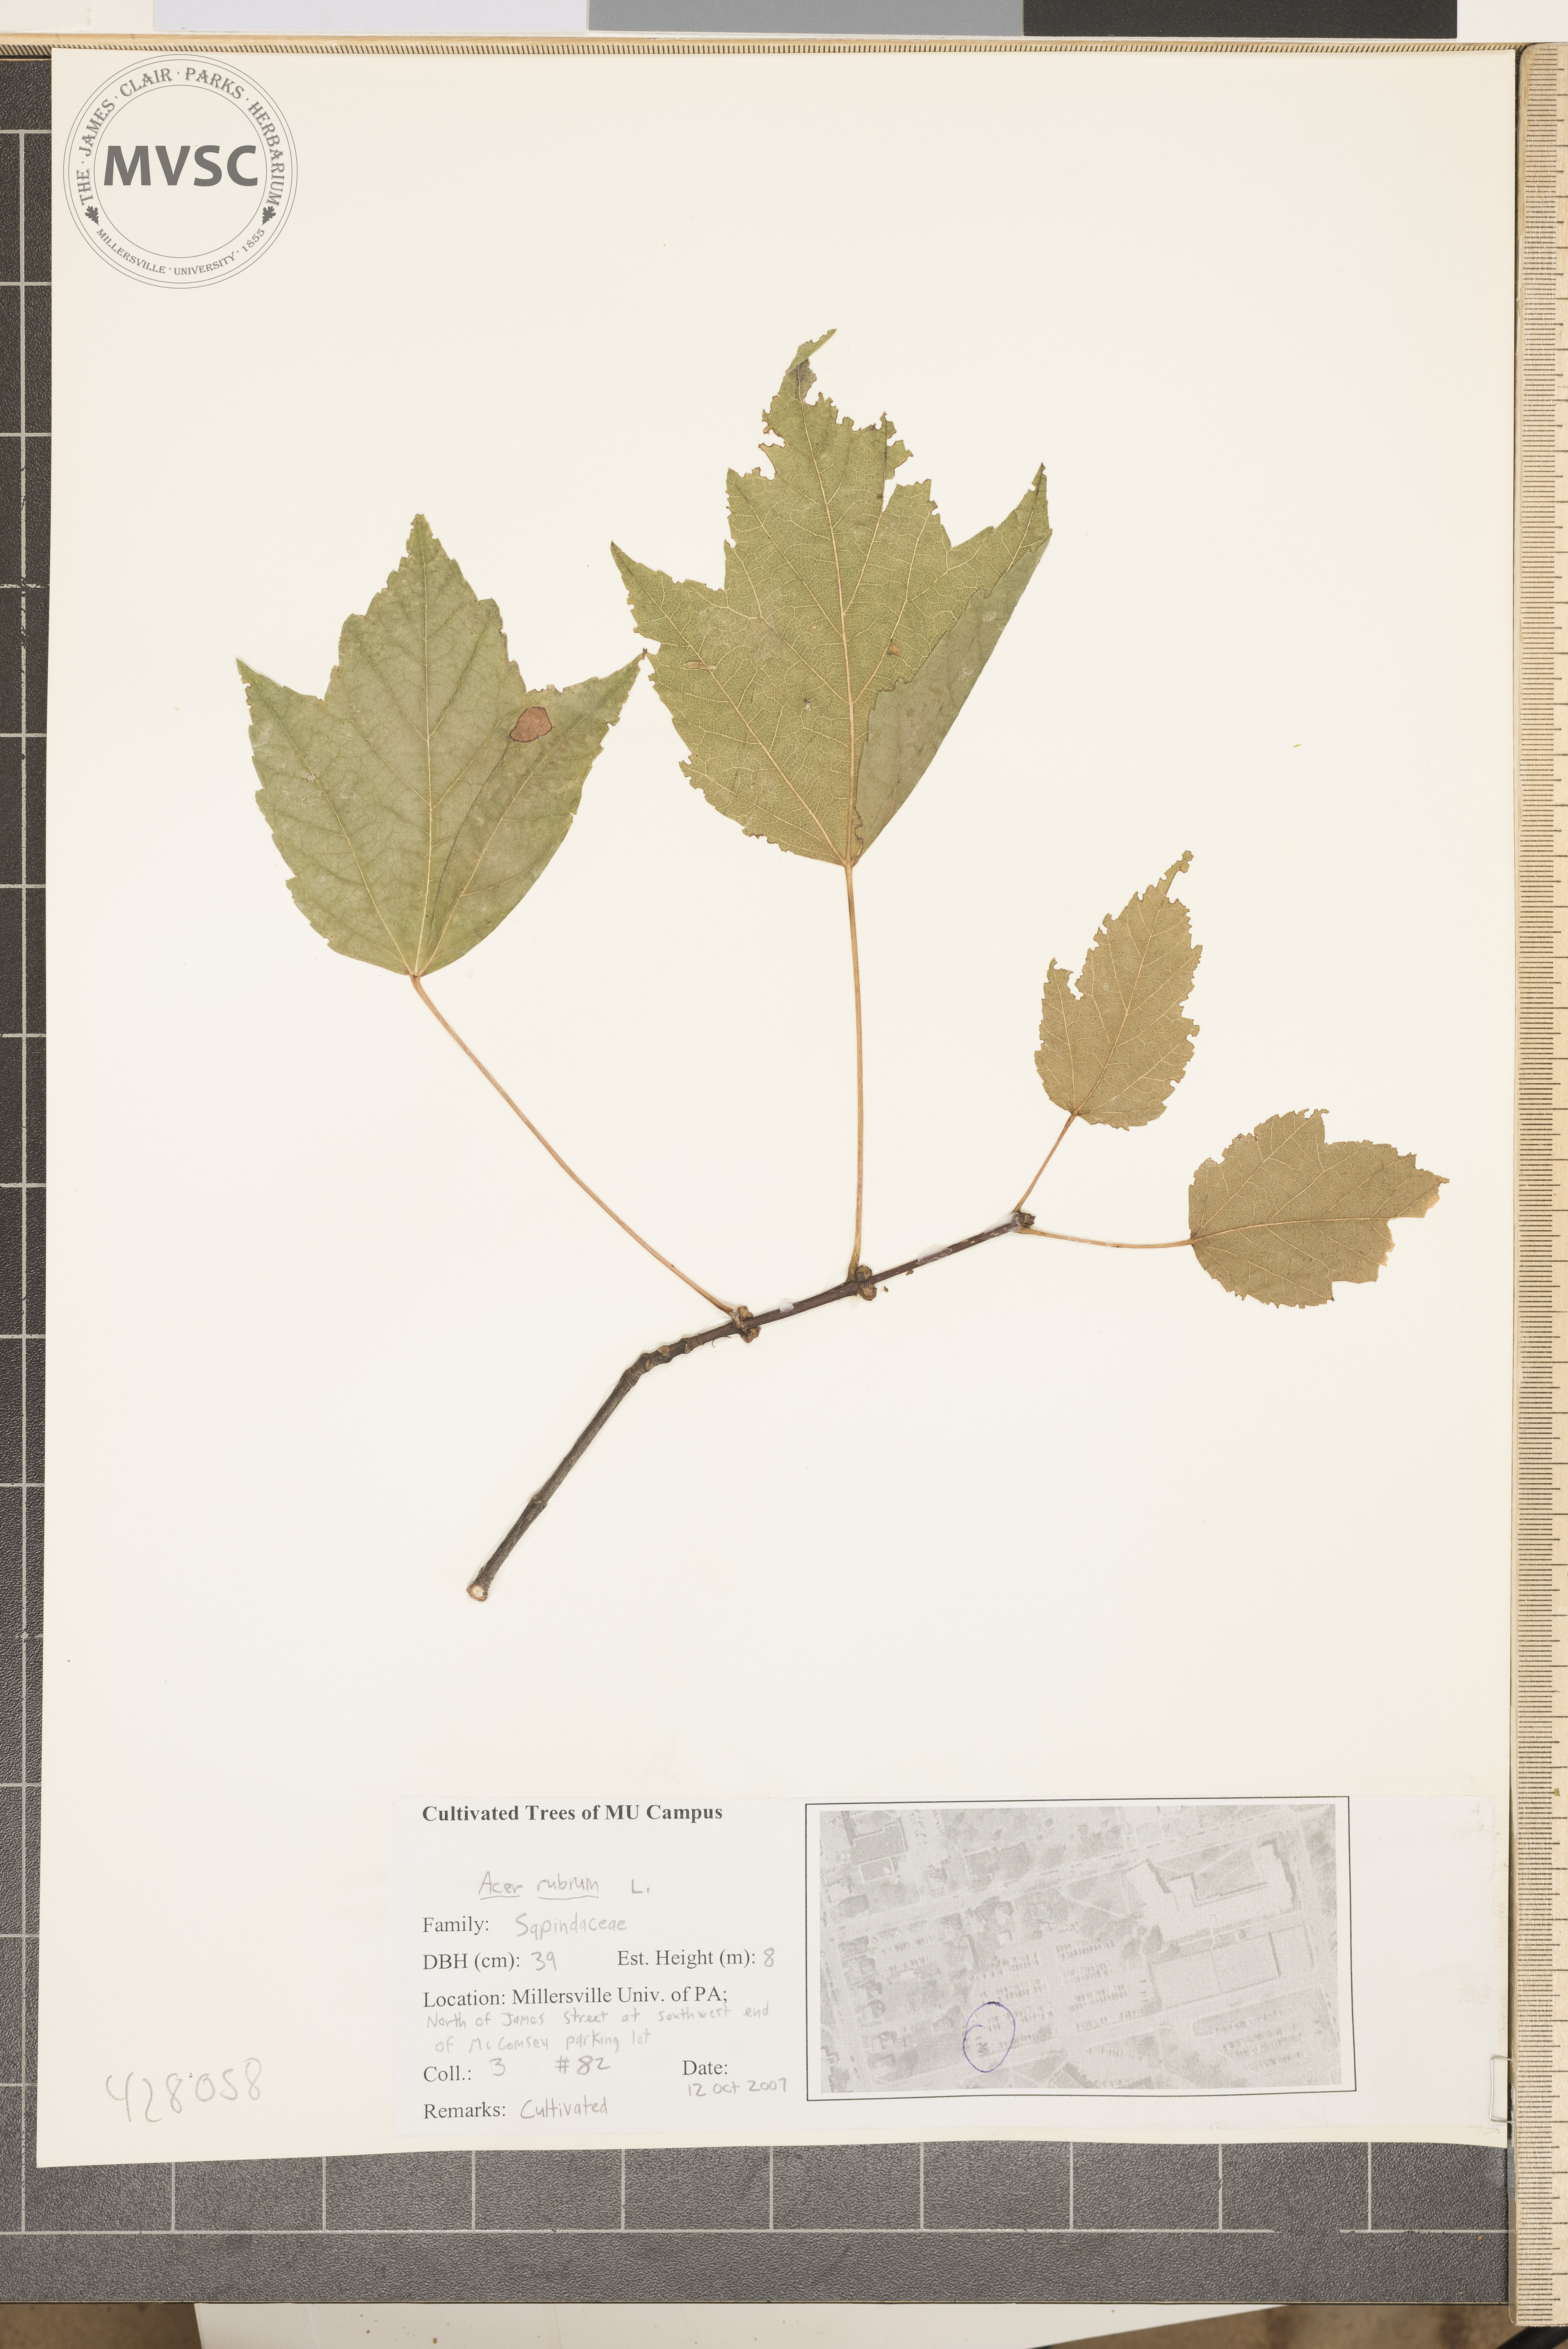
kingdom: Plantae
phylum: Tracheophyta
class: Magnoliopsida
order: Sapindales
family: Sapindaceae
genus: Acer
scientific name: Acer rubrum
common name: Red maple
